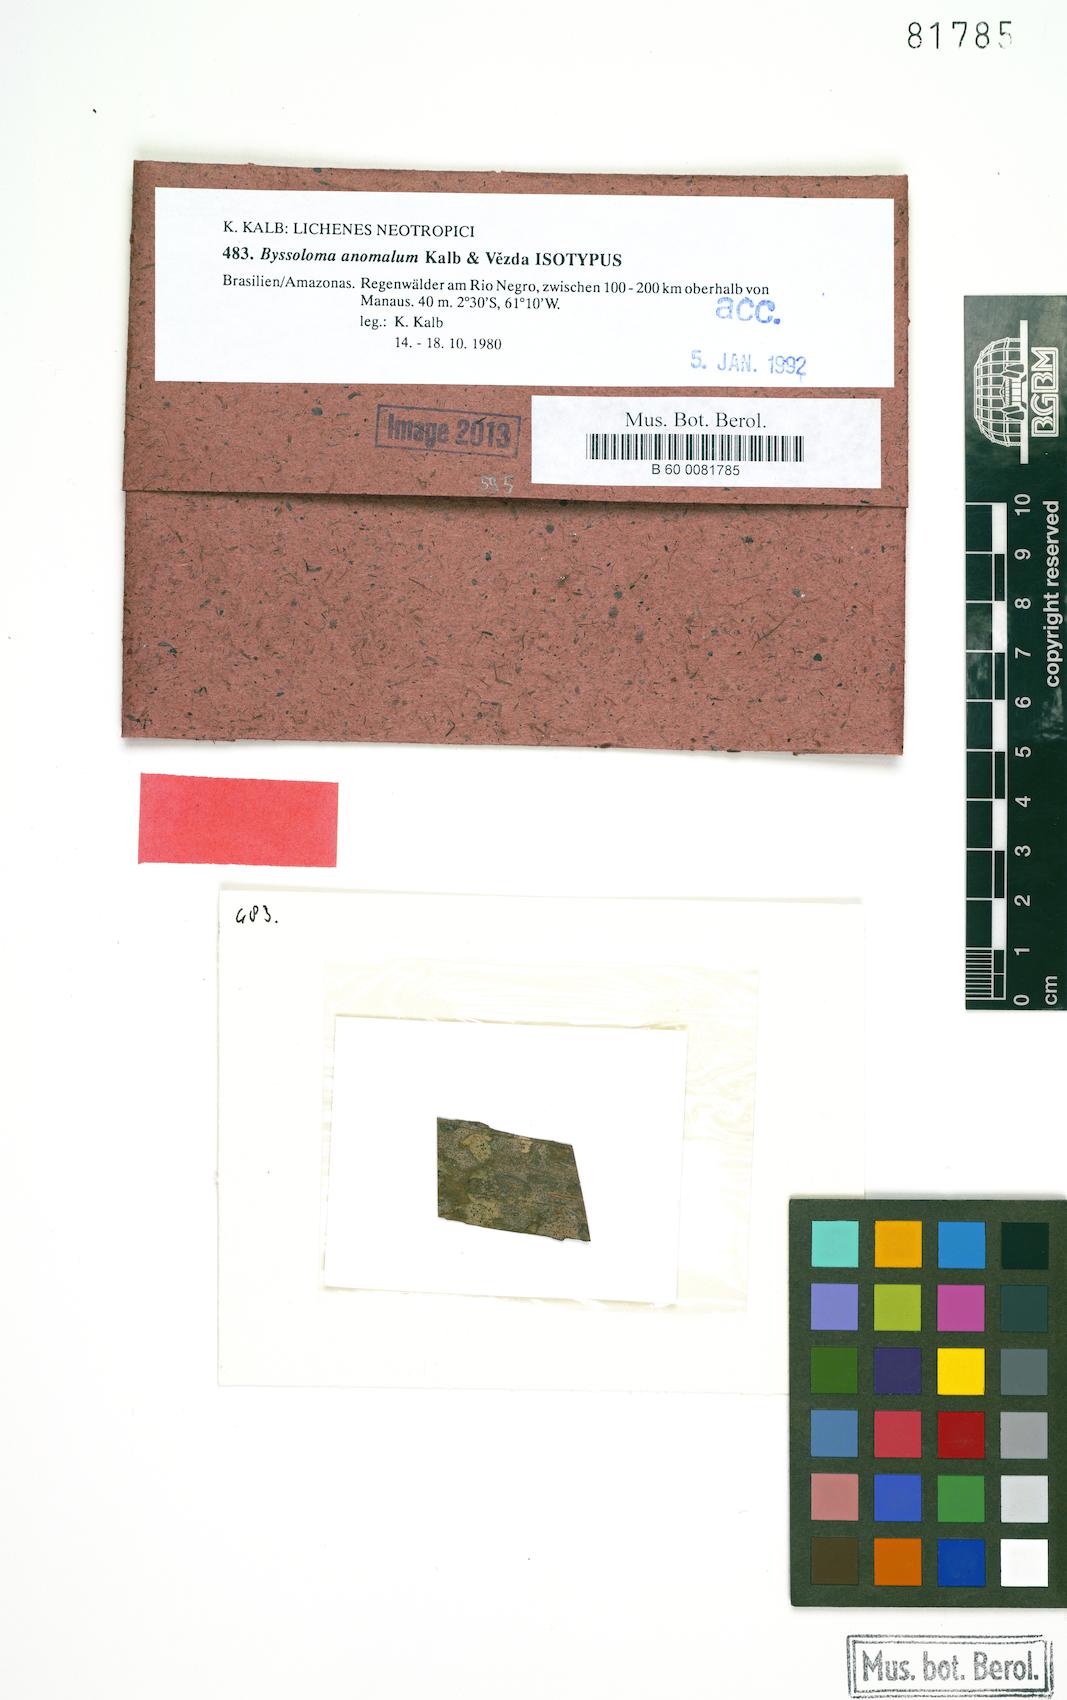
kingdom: Fungi
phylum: Ascomycota
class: Lecanoromycetes
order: Lecanorales
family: Byssolomataceae
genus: Byssoloma
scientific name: Byssoloma anomalum
